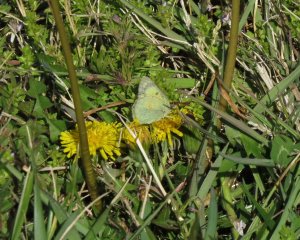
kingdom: Animalia
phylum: Arthropoda
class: Insecta
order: Lepidoptera
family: Pieridae
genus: Colias
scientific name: Colias philodice
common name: Clouded Sulphur
